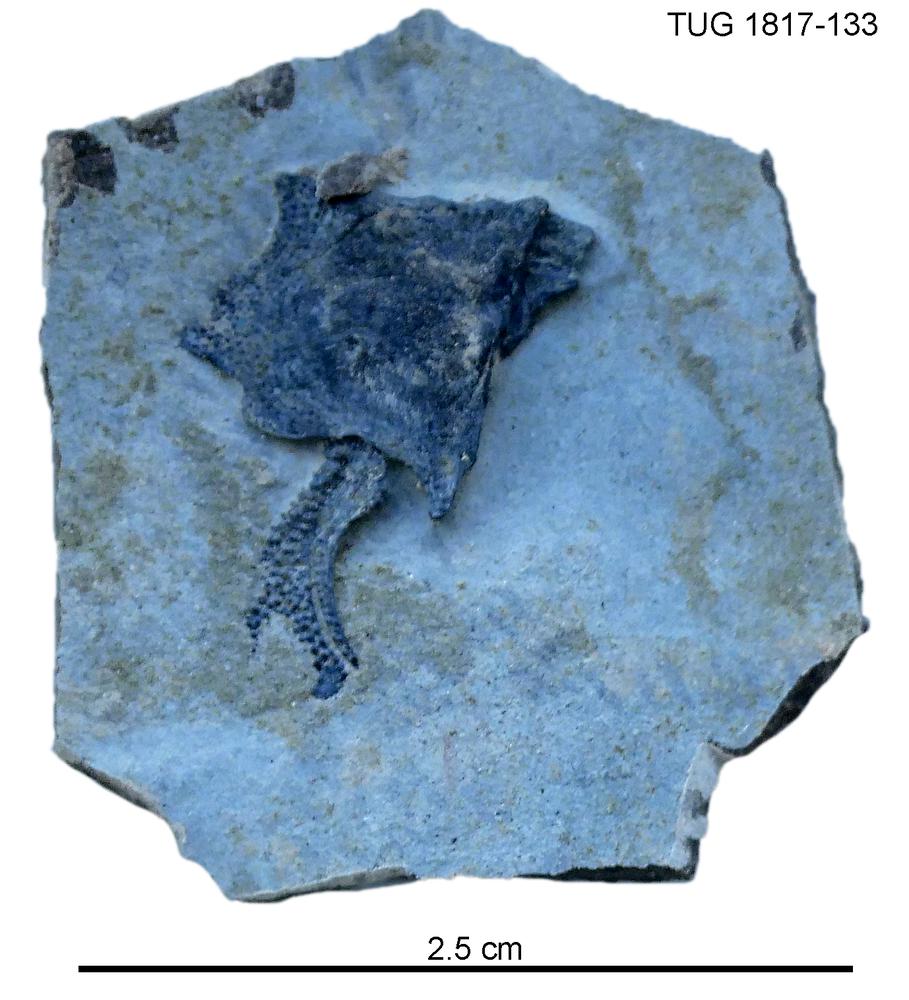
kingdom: Animalia
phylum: Chordata
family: Coccosteidae
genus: Millerosteus
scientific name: Millerosteus minor
